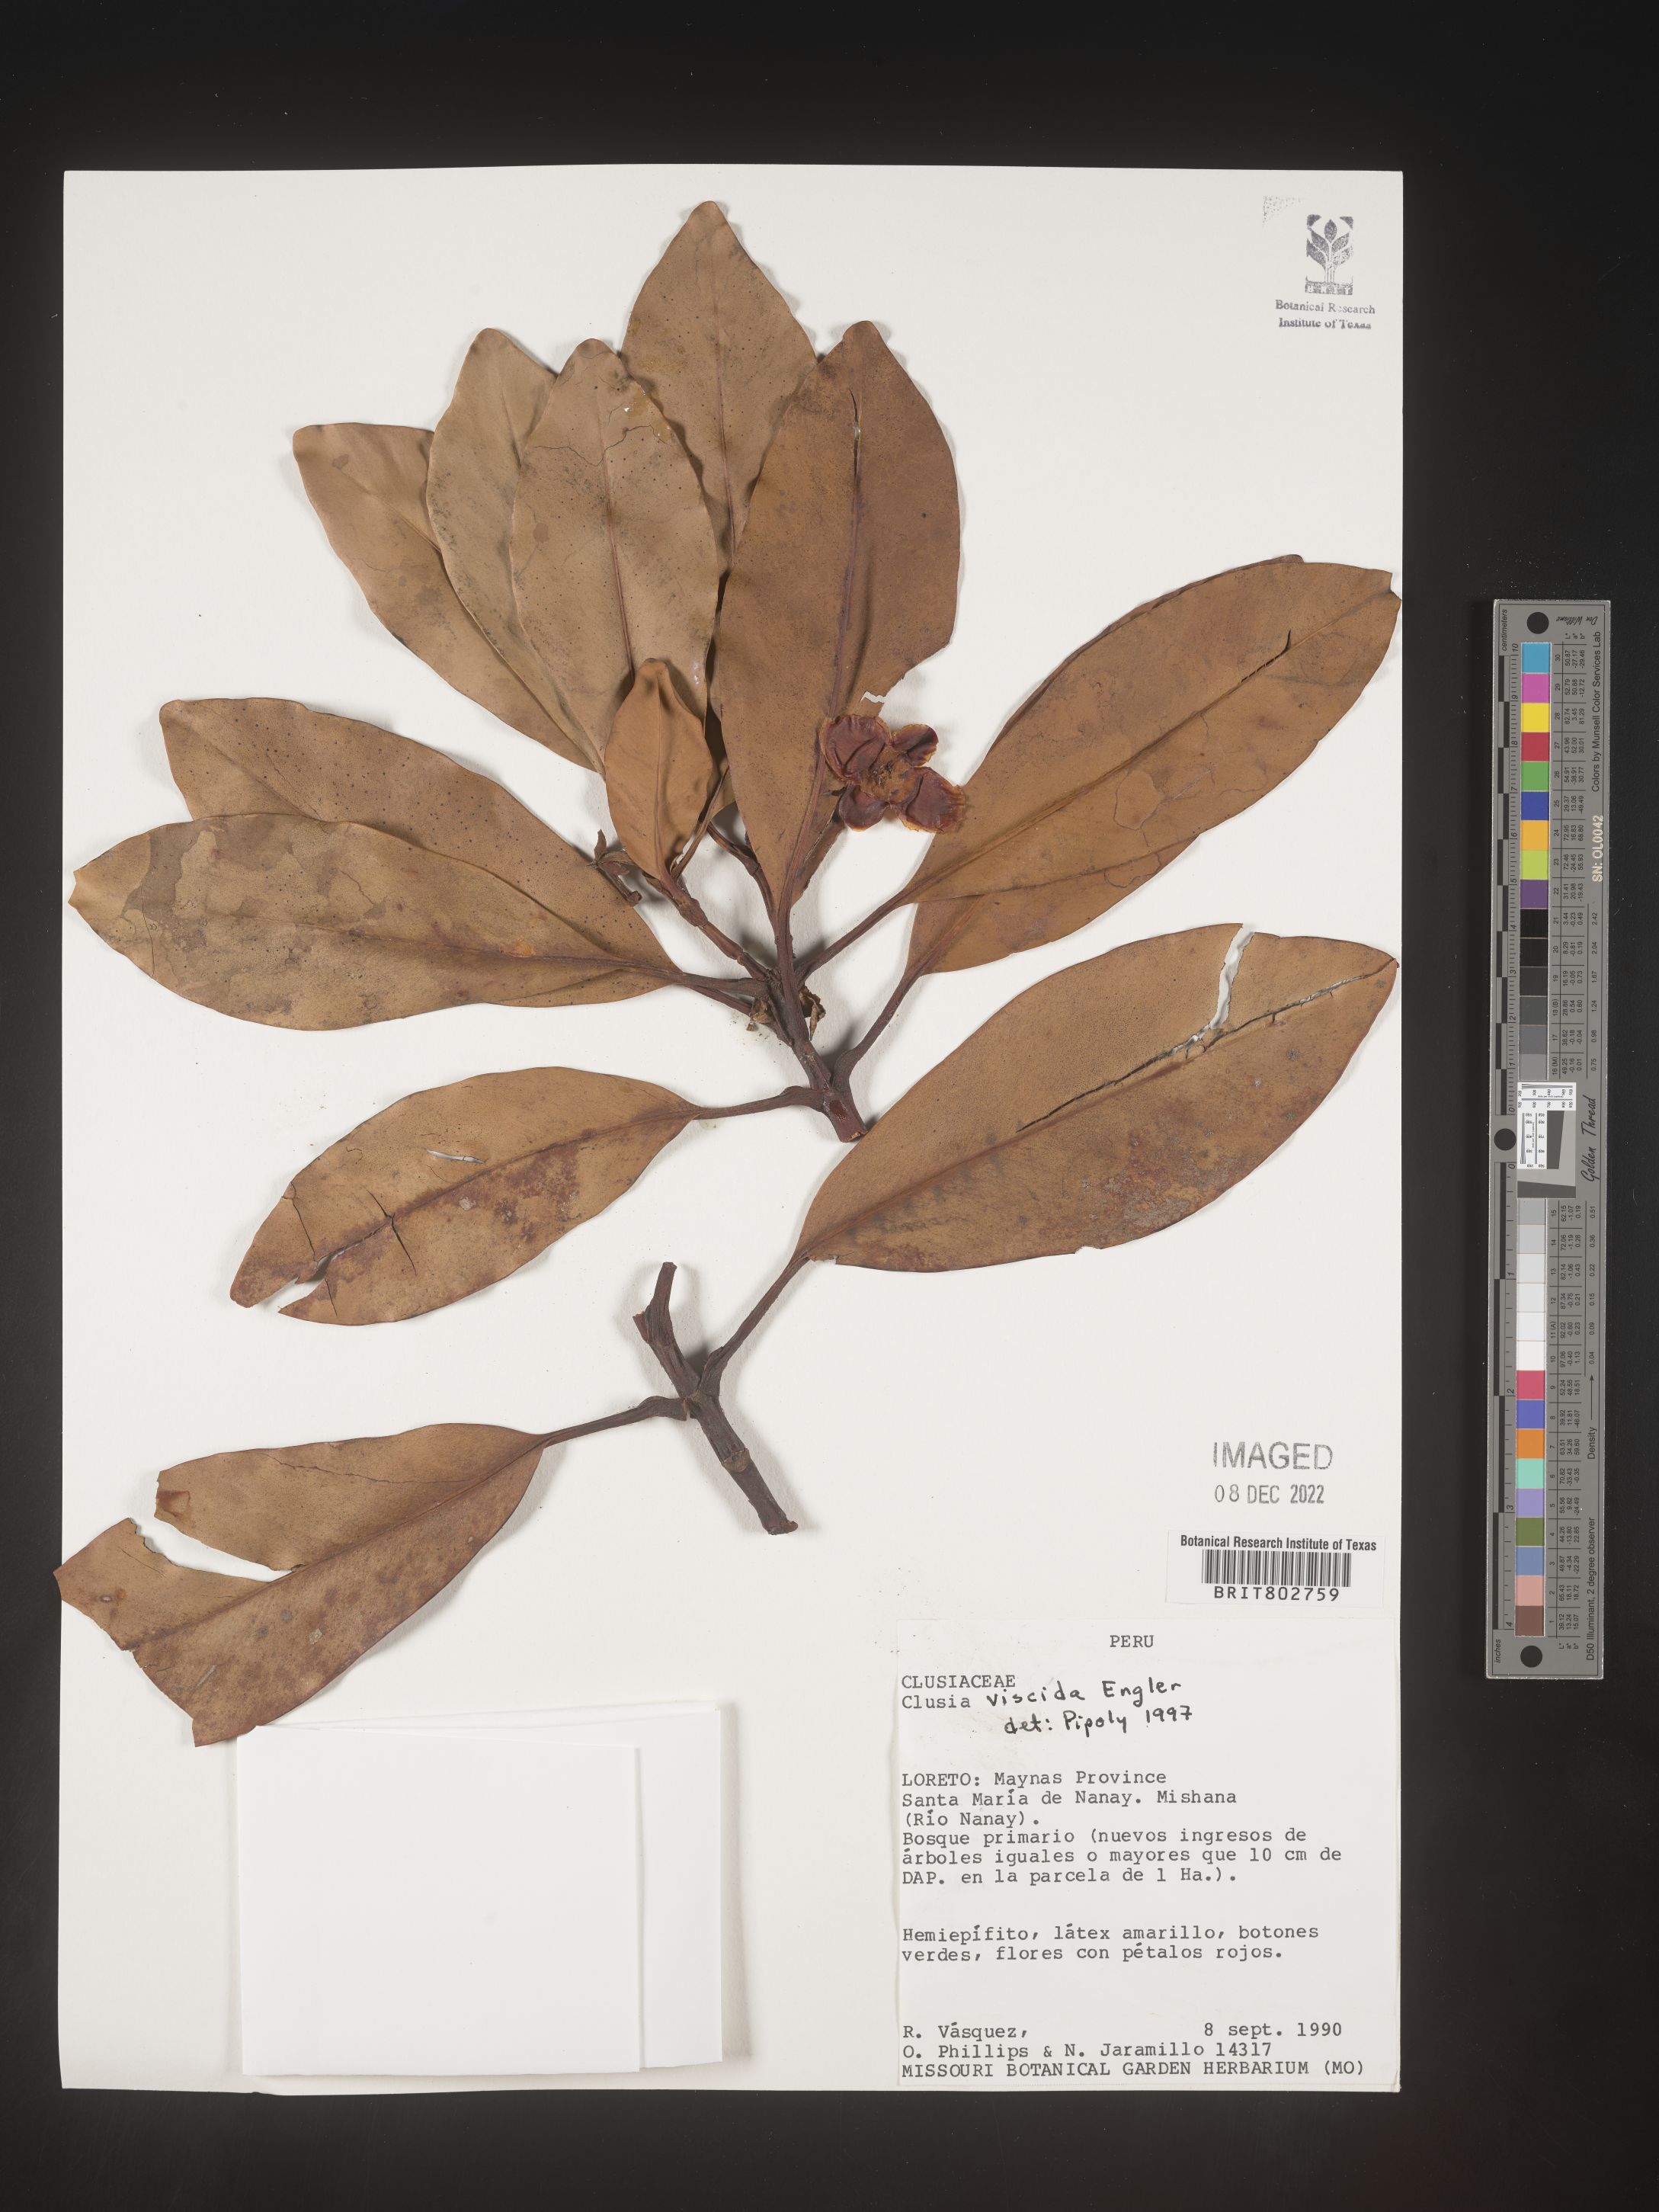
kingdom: Plantae
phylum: Tracheophyta
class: Magnoliopsida
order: Malpighiales
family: Clusiaceae
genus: Clusia
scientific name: Clusia viscida
